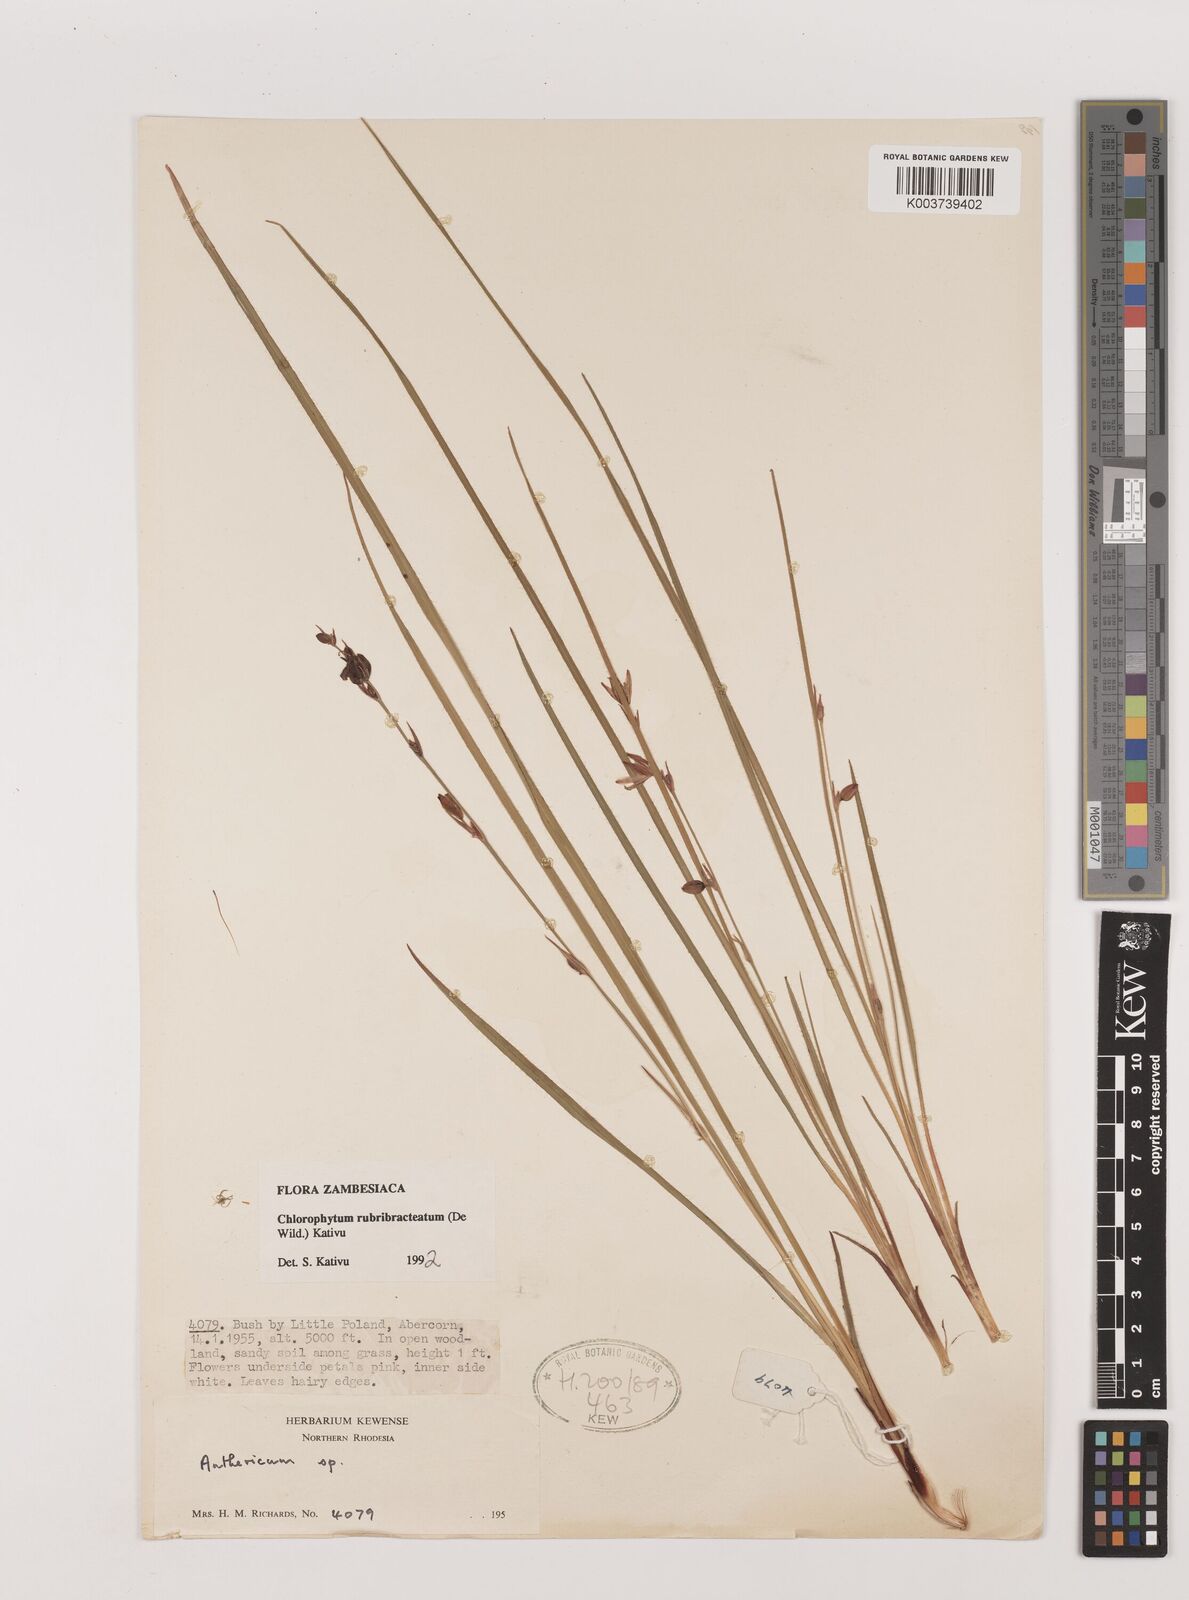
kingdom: Plantae
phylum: Tracheophyta
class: Liliopsida
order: Asparagales
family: Asparagaceae
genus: Chlorophytum
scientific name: Chlorophytum rubribracteatum
